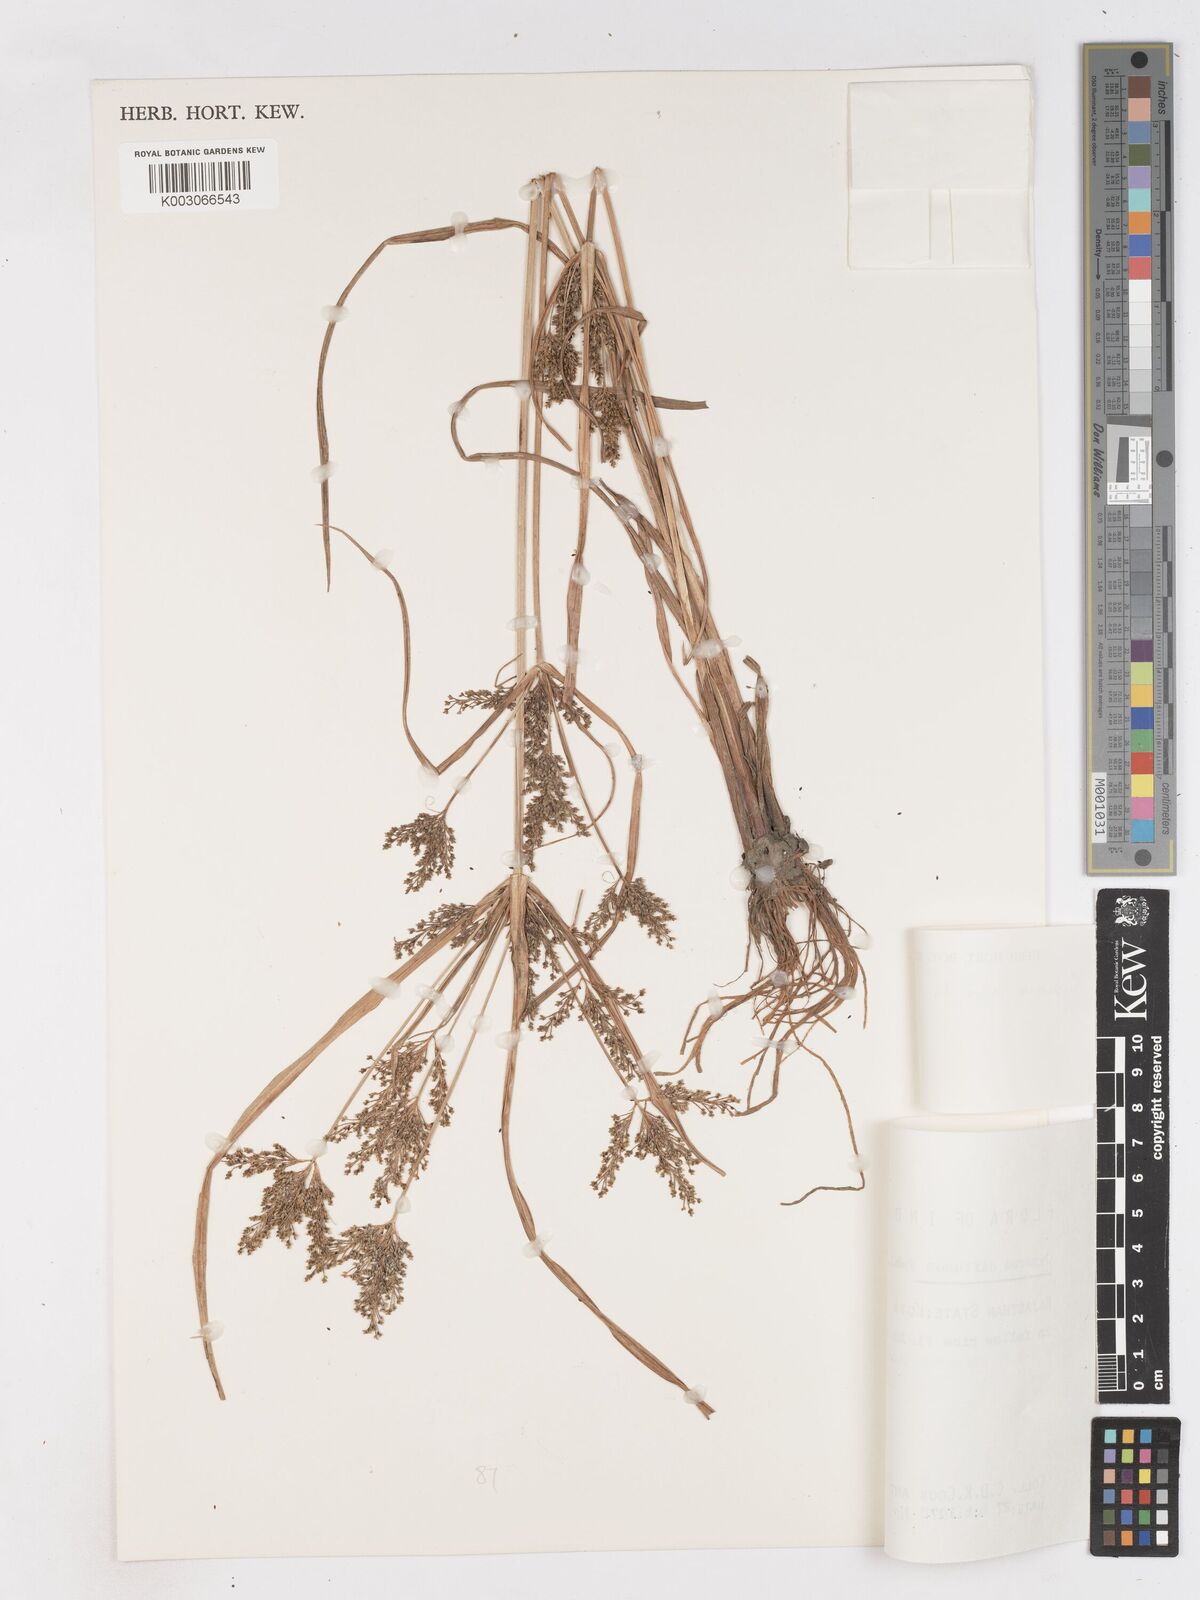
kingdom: Plantae
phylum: Tracheophyta
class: Liliopsida
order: Poales
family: Cyperaceae
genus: Cyperus
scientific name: Cyperus iria
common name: Ricefield flatsedge
